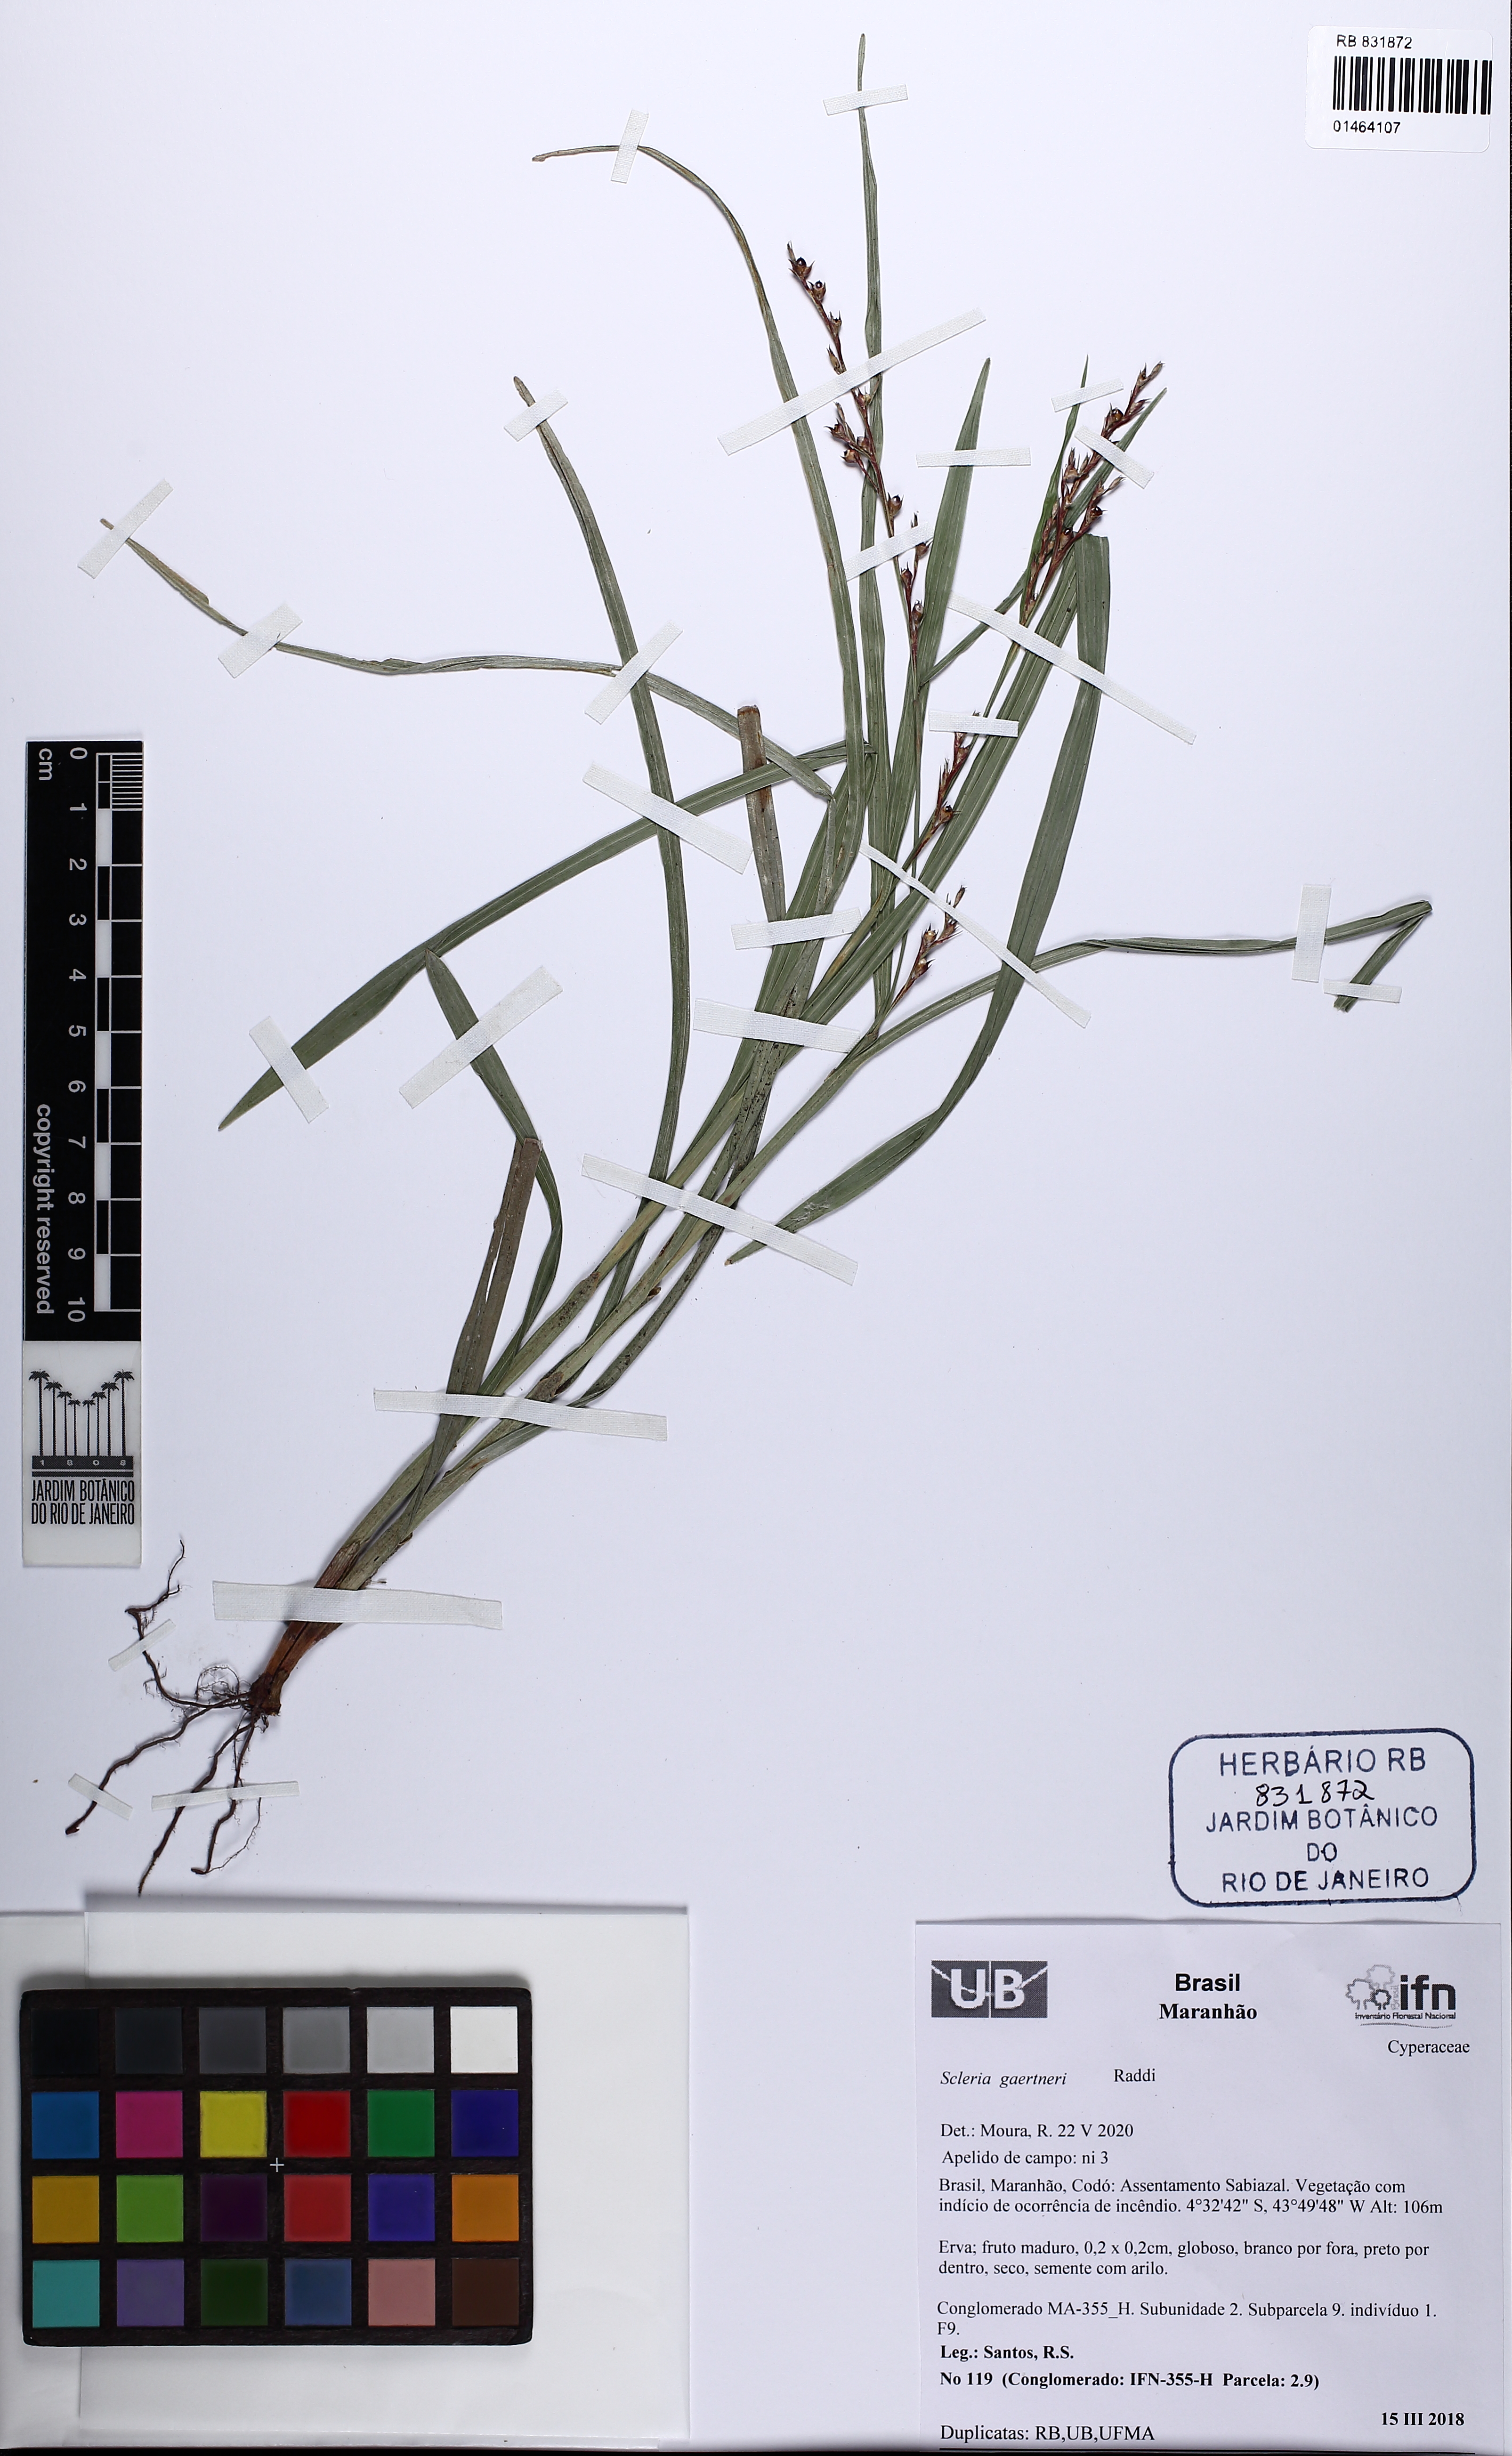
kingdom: Plantae
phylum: Tracheophyta
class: Liliopsida
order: Poales
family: Cyperaceae
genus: Scleria
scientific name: Scleria gaertneri
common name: Cortadera blanca
